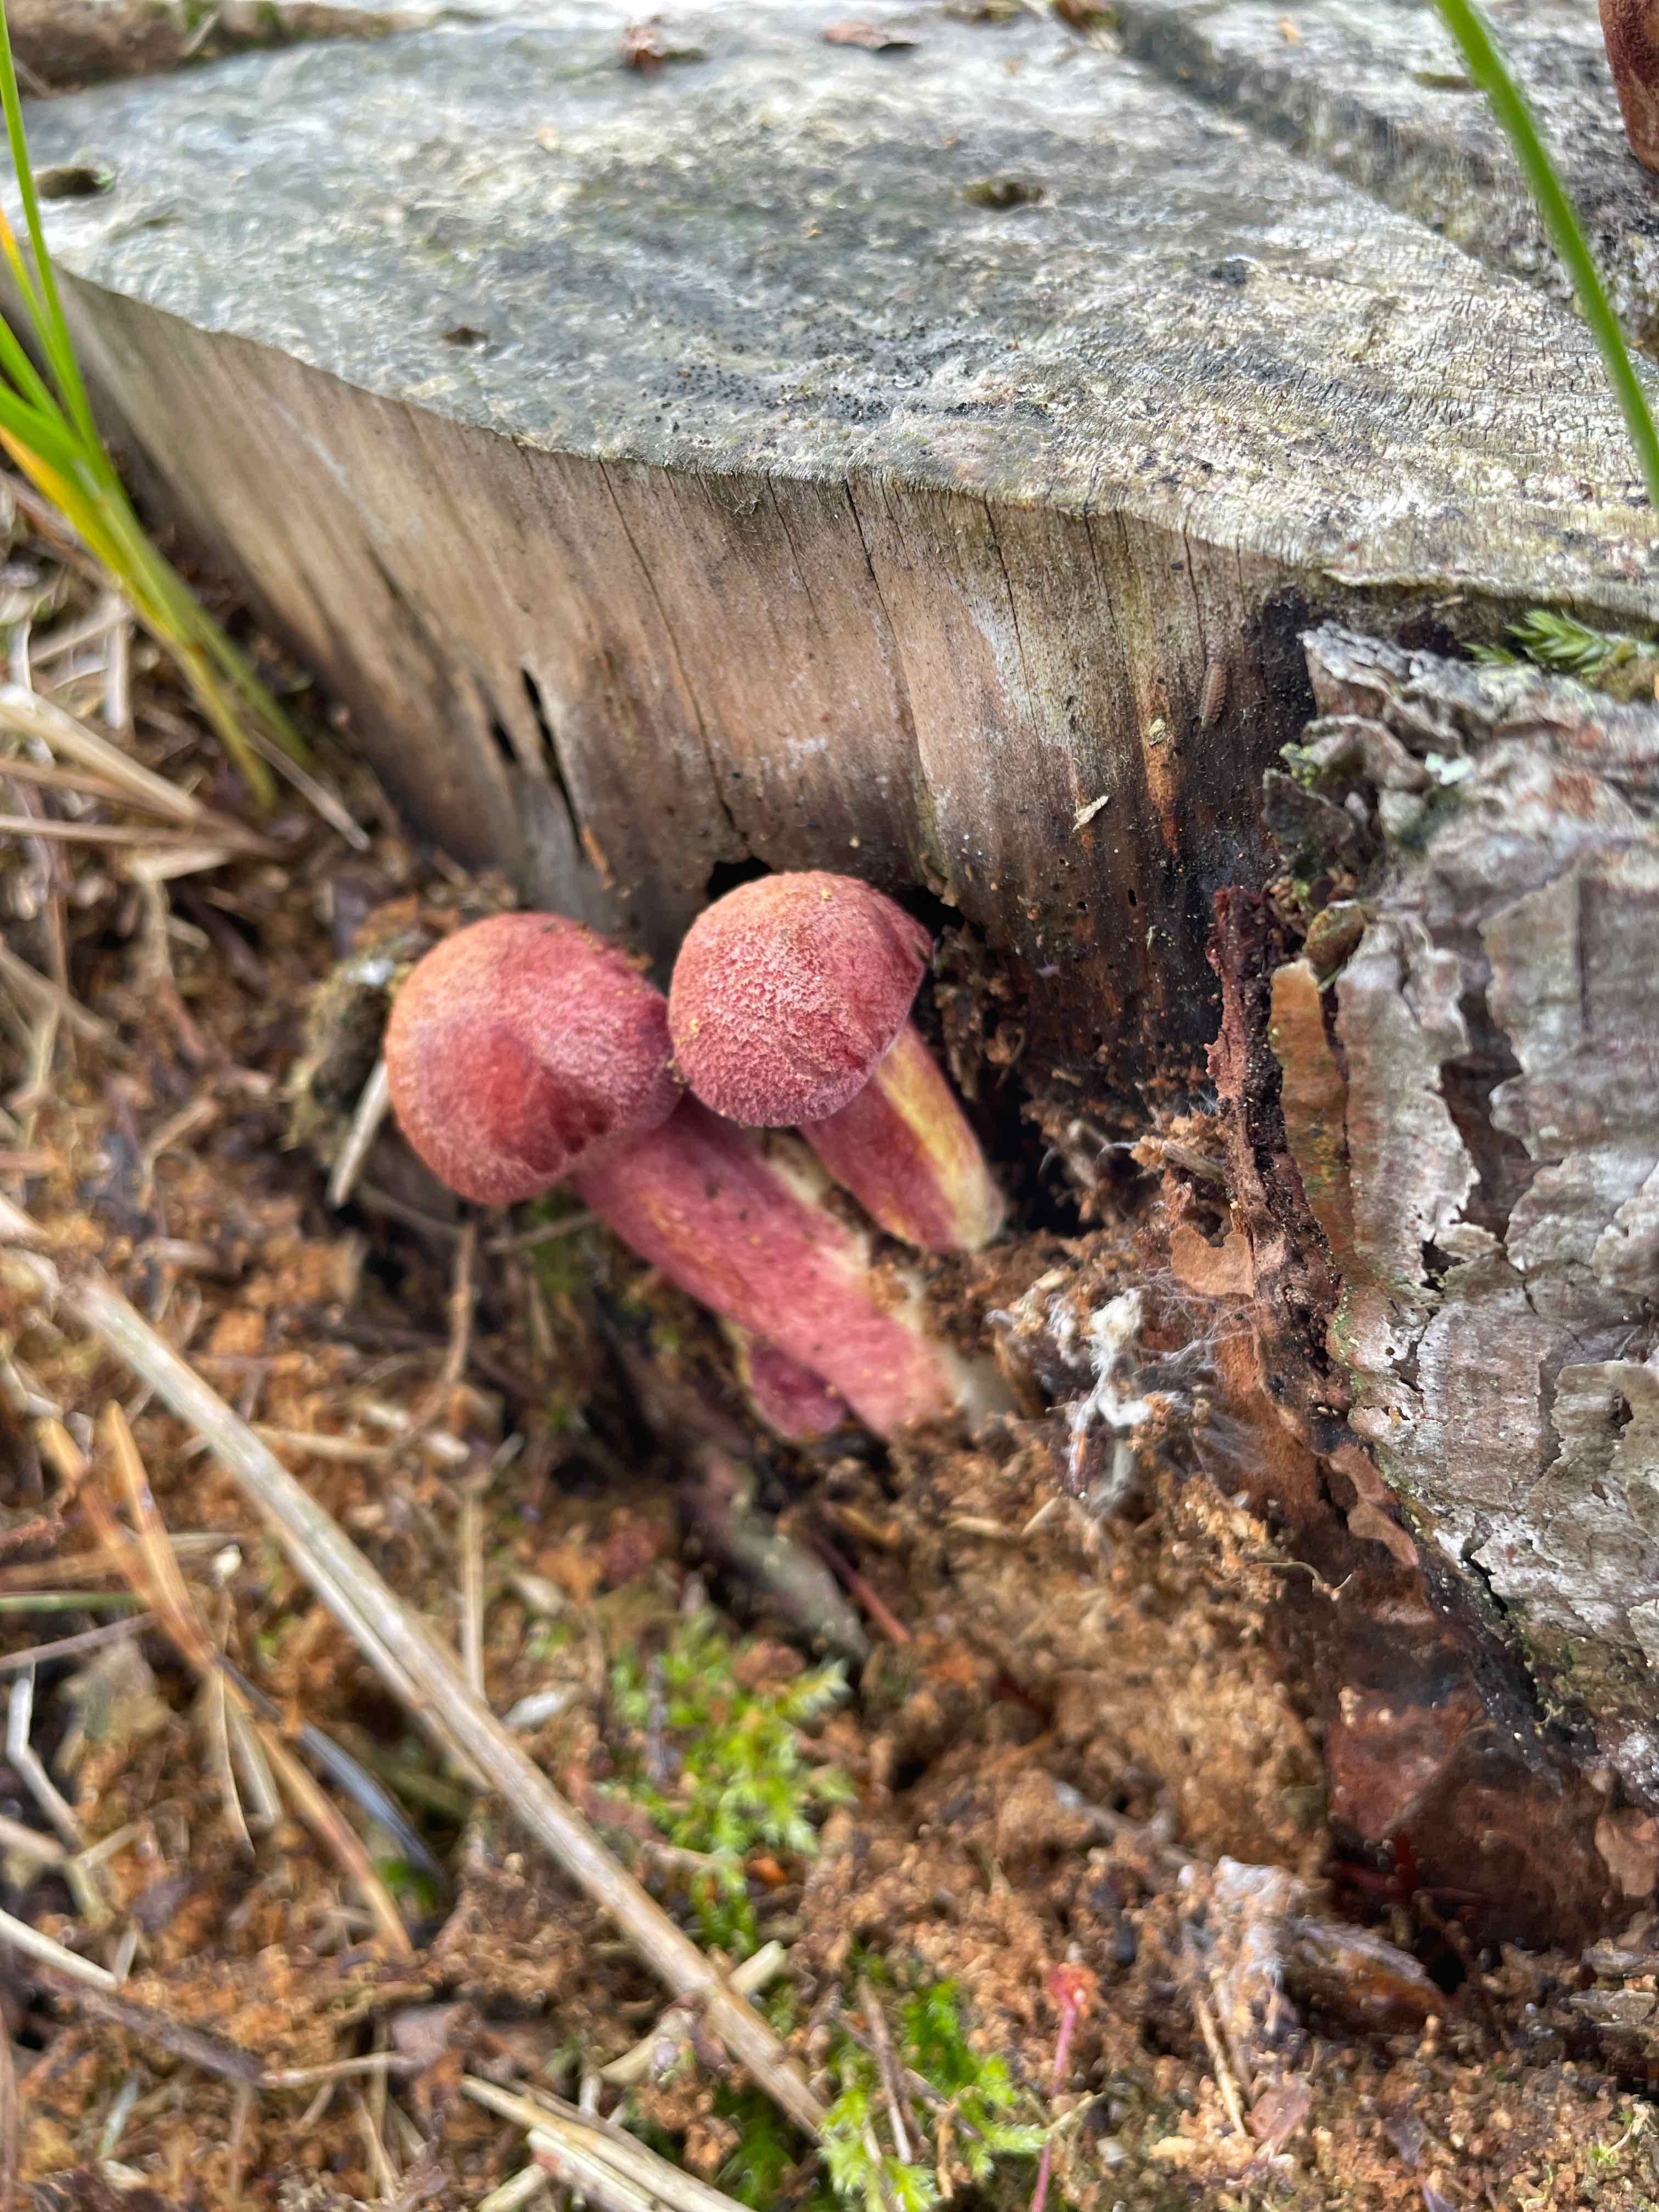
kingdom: Fungi
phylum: Basidiomycota
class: Agaricomycetes
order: Agaricales
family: Tricholomataceae
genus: Tricholomopsis
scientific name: Tricholomopsis rutilans
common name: purpur-væbnerhat
